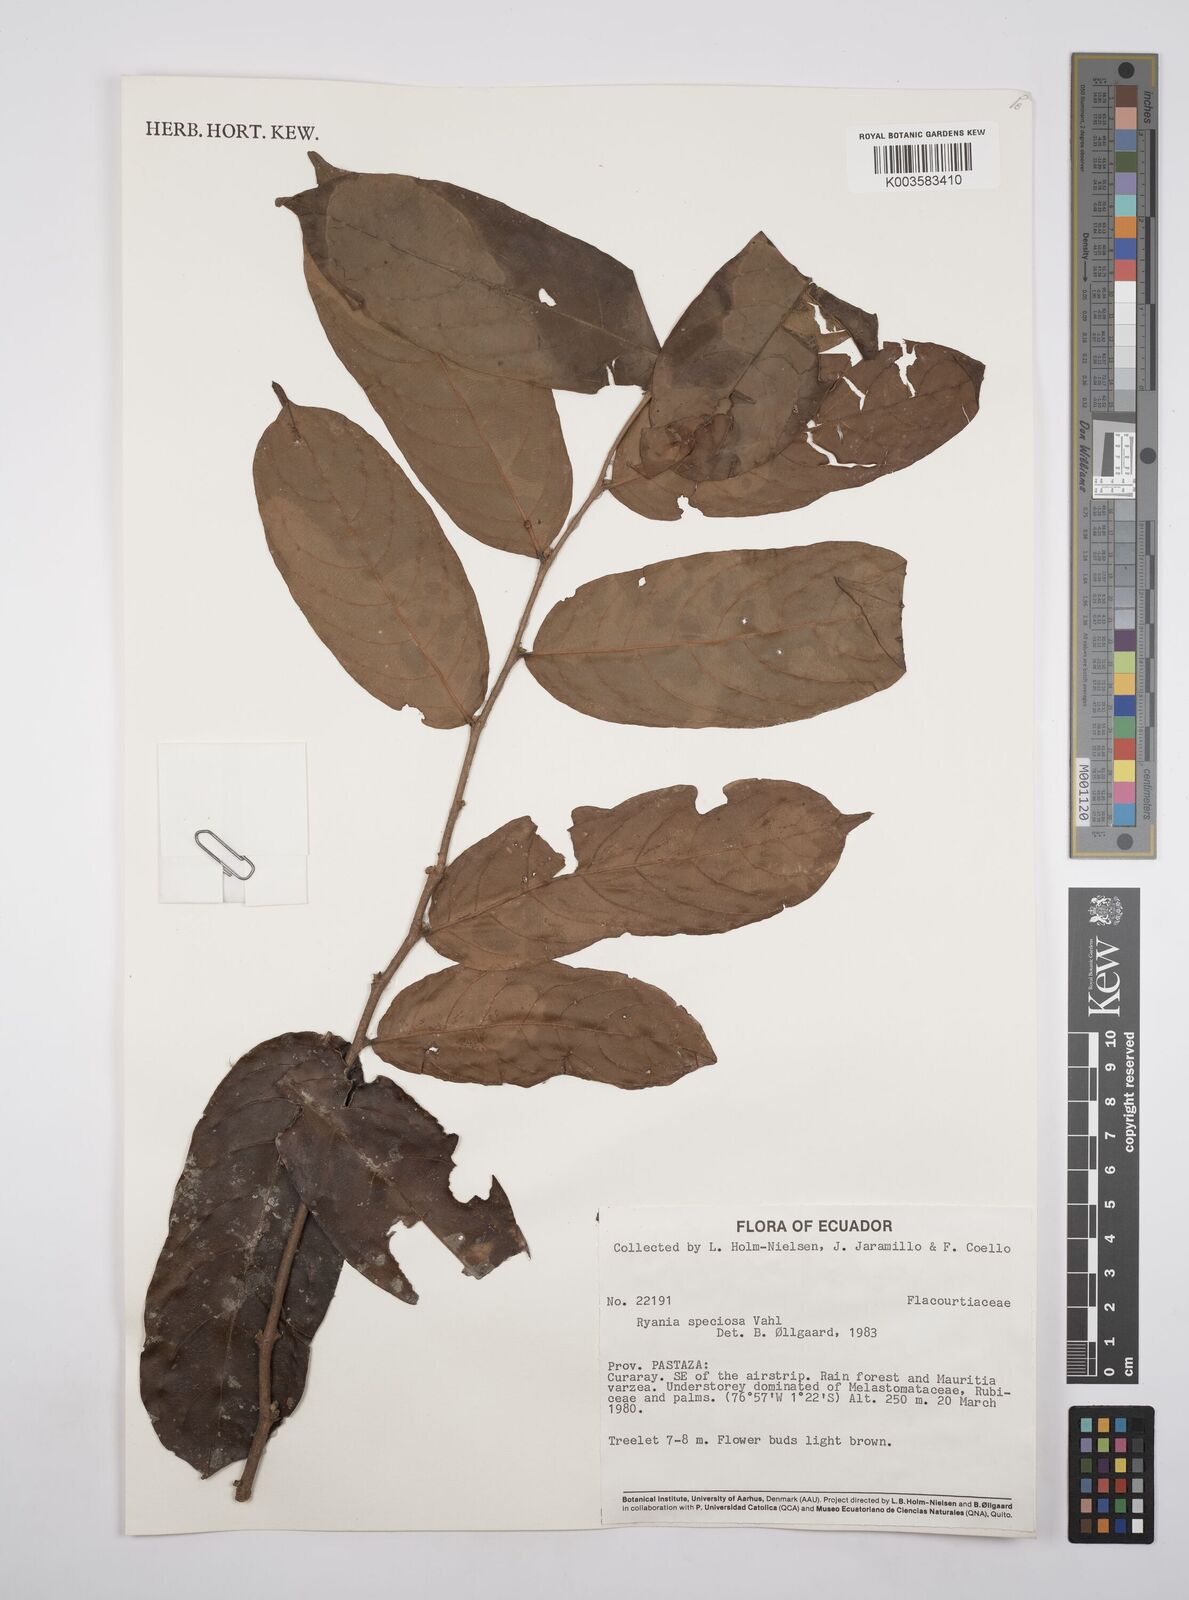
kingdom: Plantae
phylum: Tracheophyta
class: Magnoliopsida
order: Malpighiales
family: Salicaceae
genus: Ryania
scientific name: Ryania speciosa
